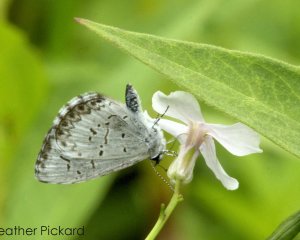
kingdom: Animalia
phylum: Arthropoda
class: Insecta
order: Lepidoptera
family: Lycaenidae
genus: Cyaniris
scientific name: Cyaniris neglecta
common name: Summer Azure
